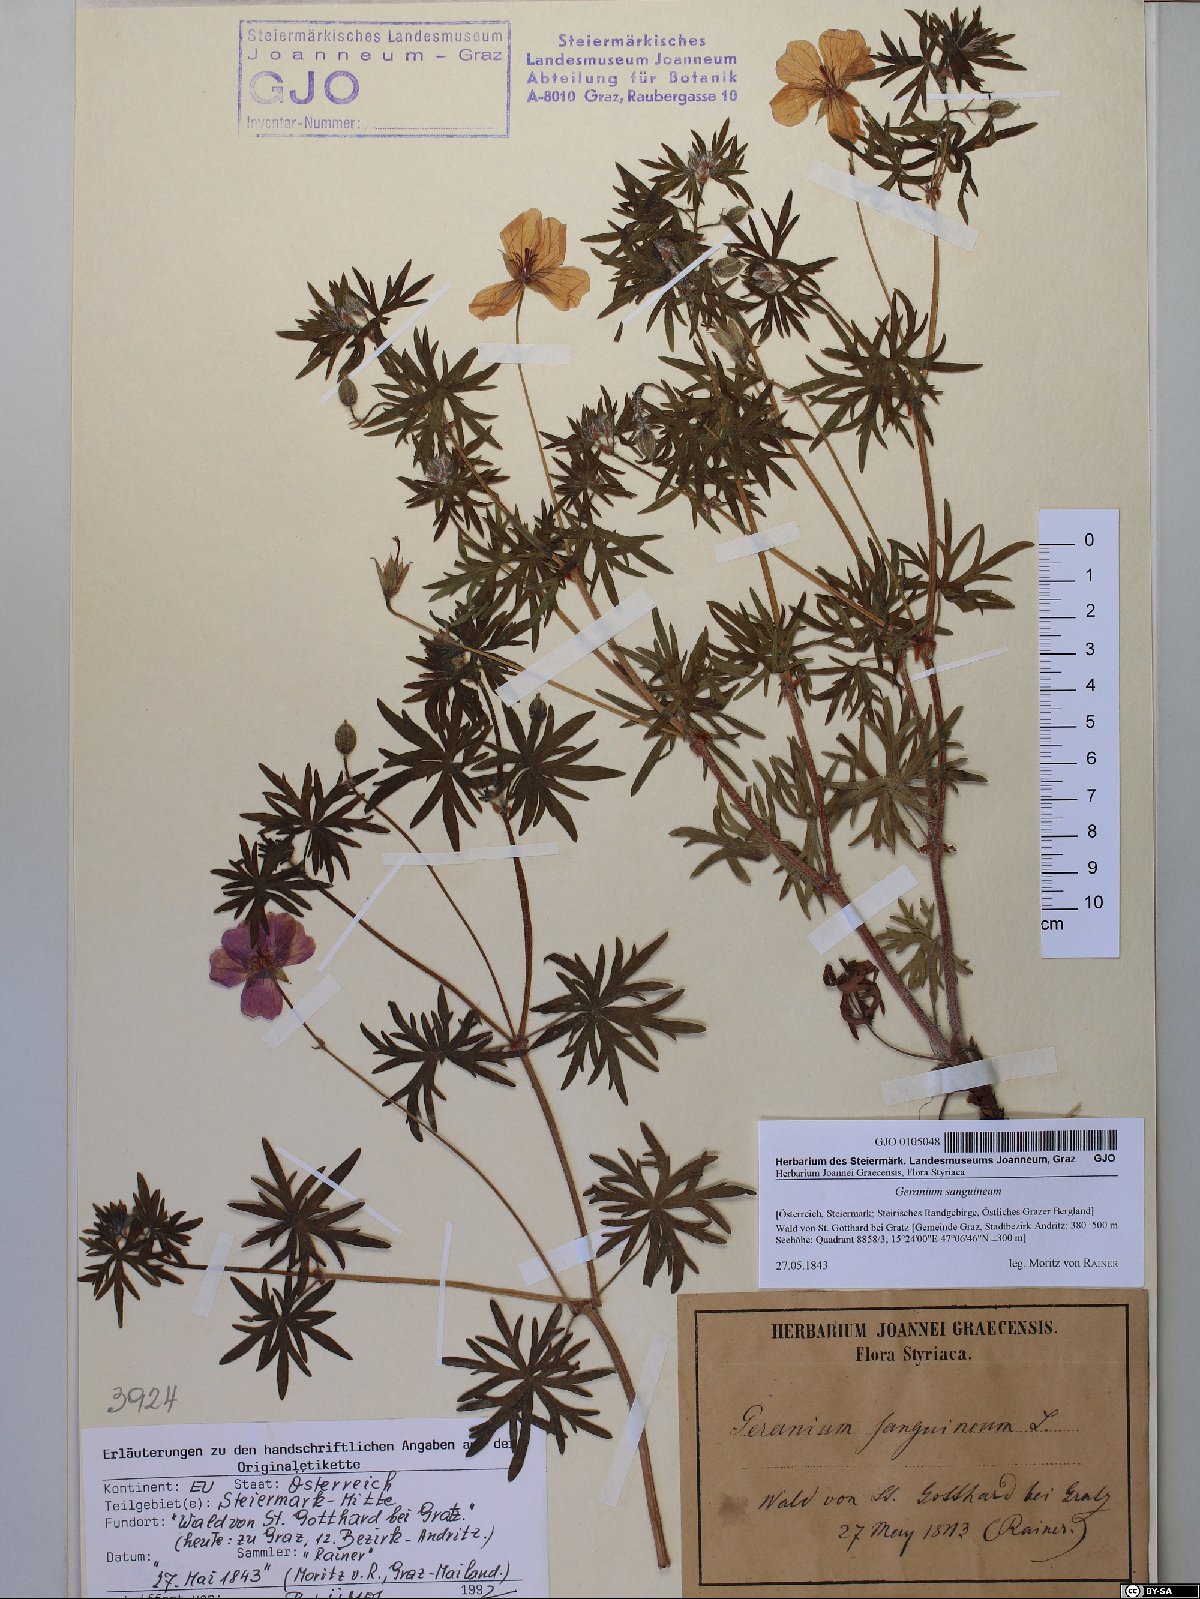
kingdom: Plantae
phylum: Tracheophyta
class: Magnoliopsida
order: Geraniales
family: Geraniaceae
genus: Geranium
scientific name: Geranium sanguineum
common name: Bloody crane's-bill
